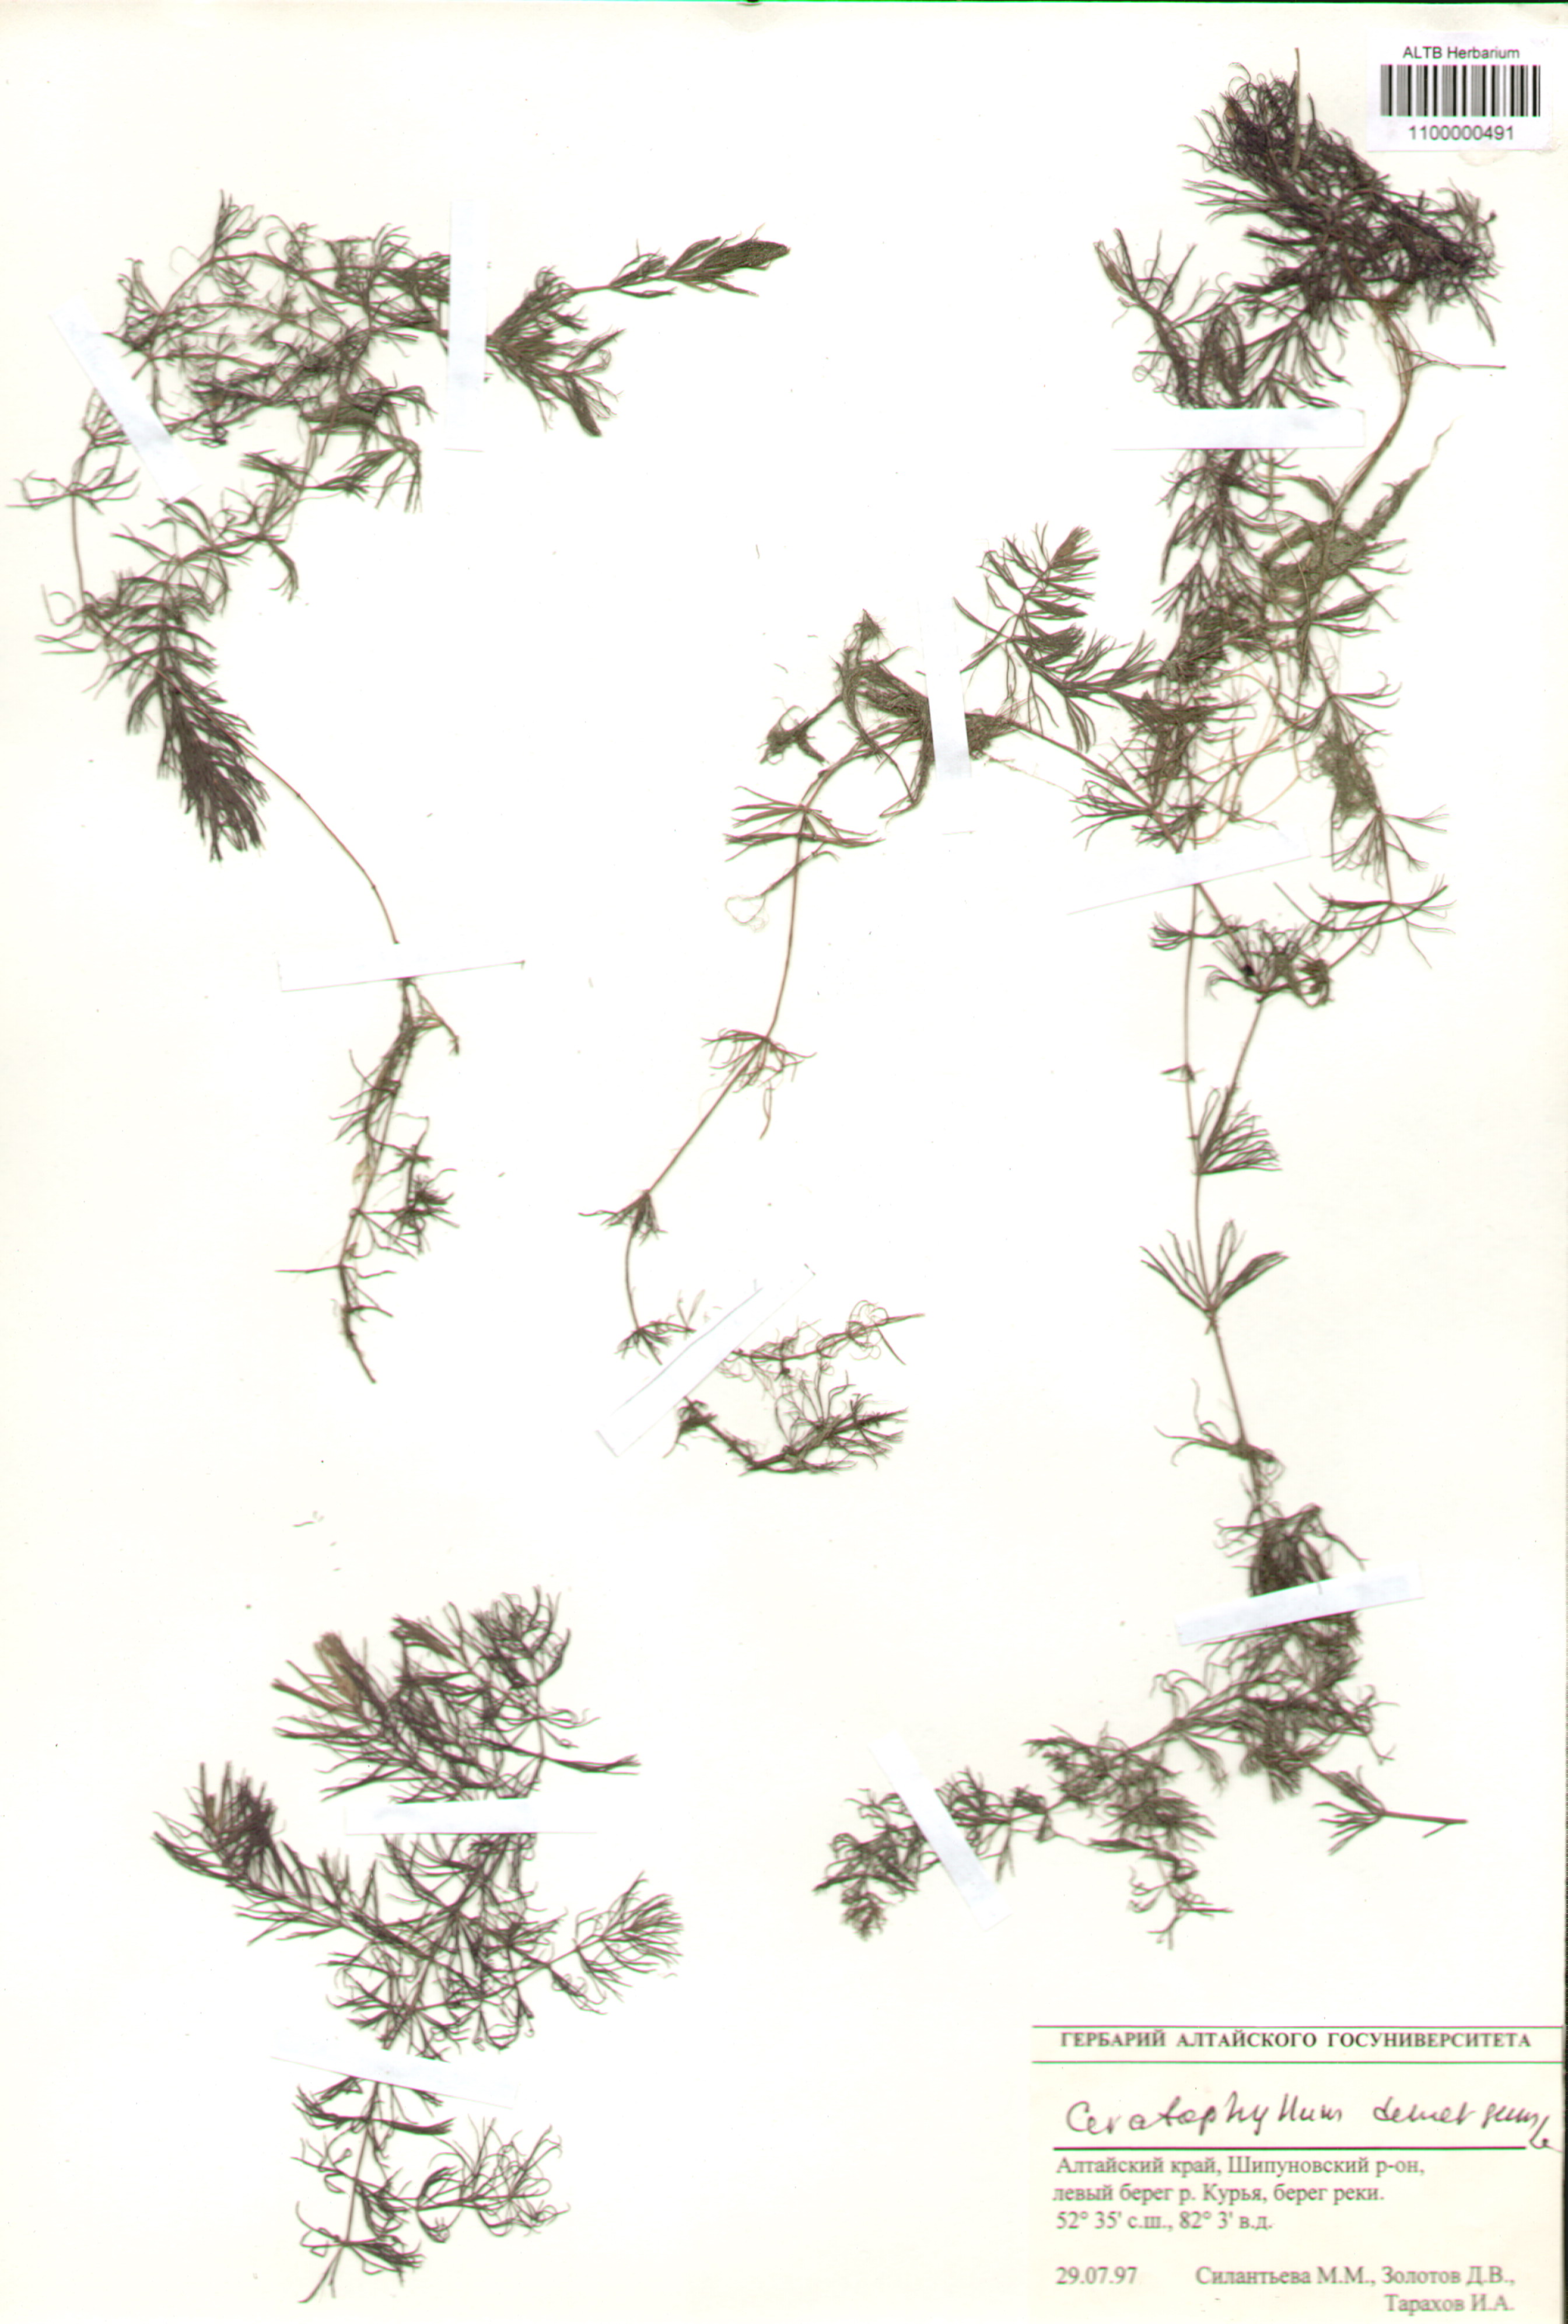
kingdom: Plantae
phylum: Tracheophyta
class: Magnoliopsida
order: Ceratophyllales
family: Ceratophyllaceae
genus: Ceratophyllum
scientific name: Ceratophyllum demersum
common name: Rigid hornwort
